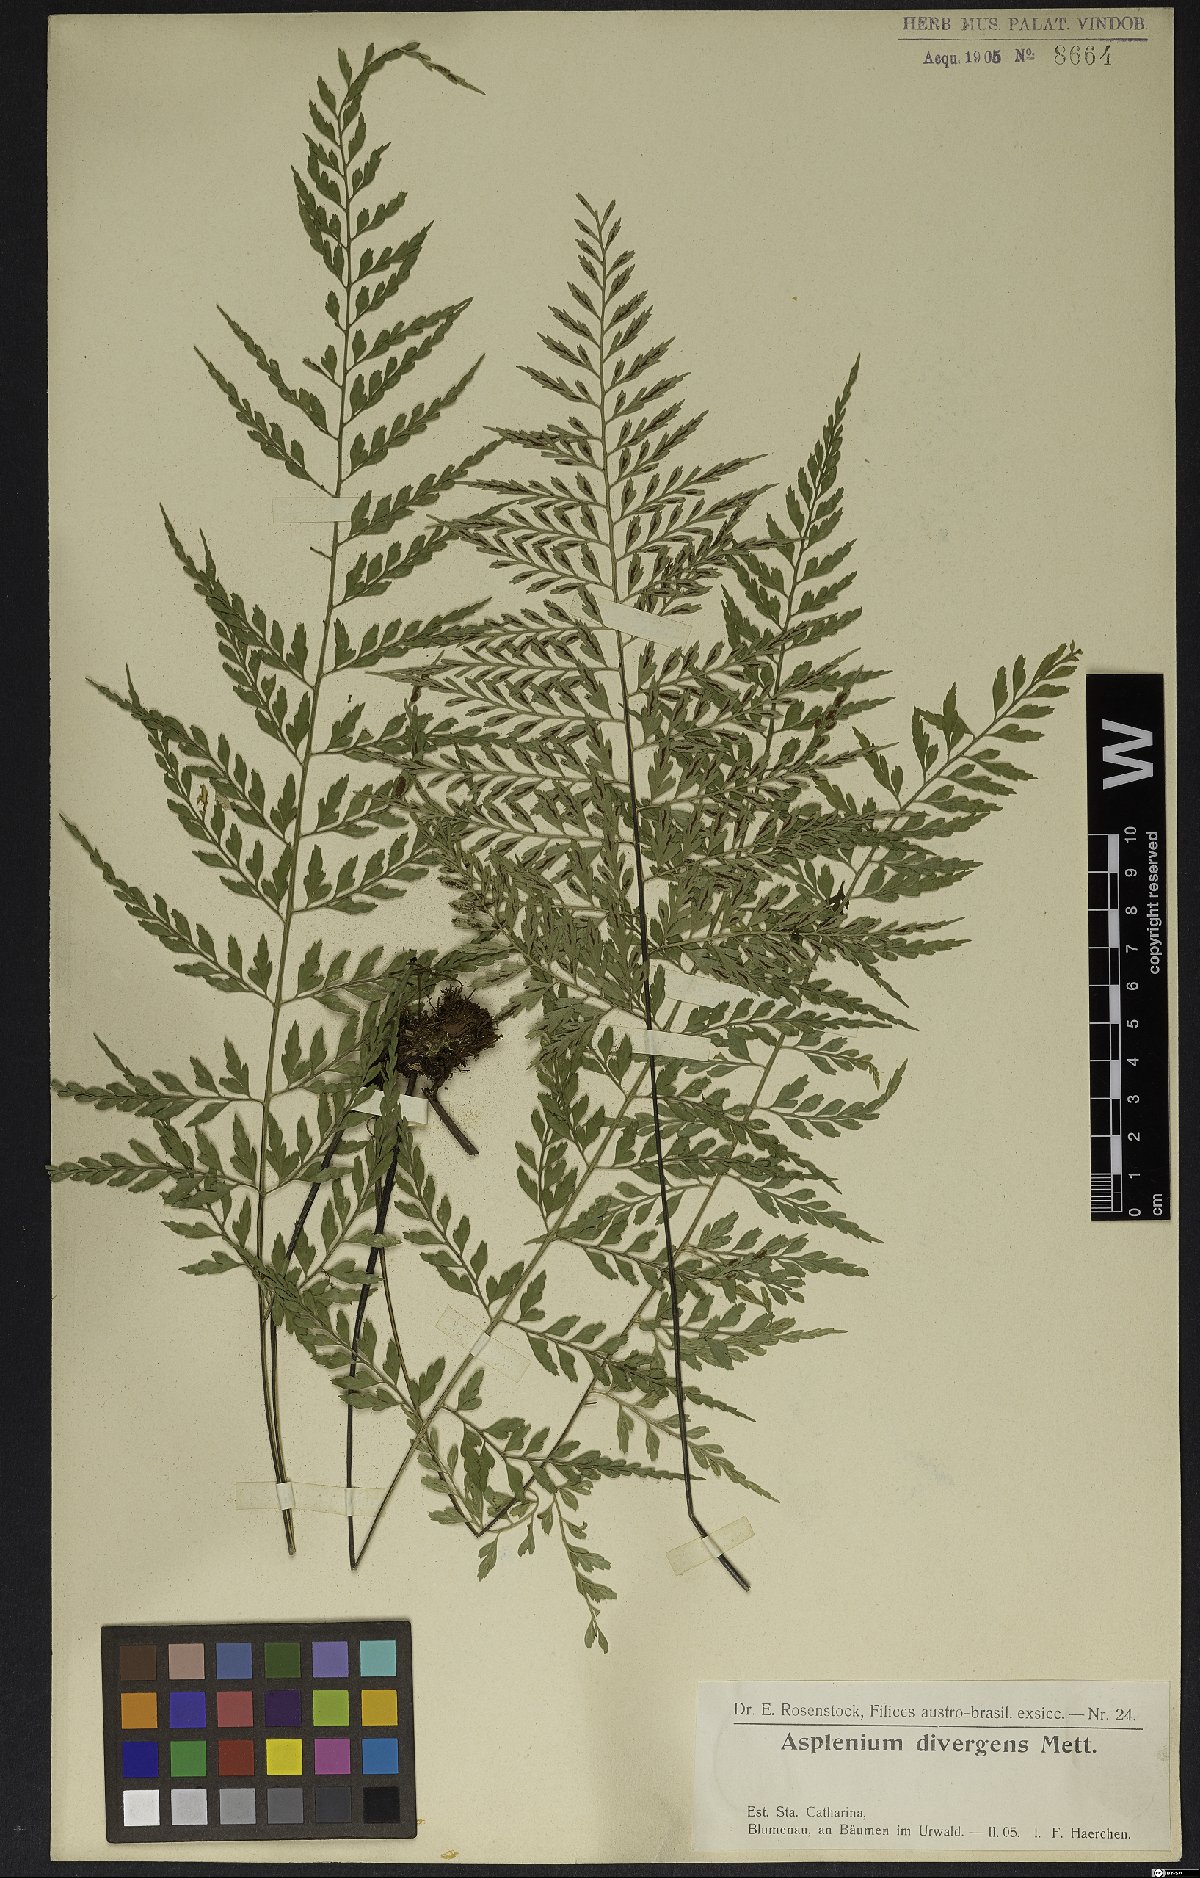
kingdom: Plantae
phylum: Tracheophyta
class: Polypodiopsida
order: Polypodiales
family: Aspleniaceae
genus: Asplenium
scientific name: Asplenium gastonis
